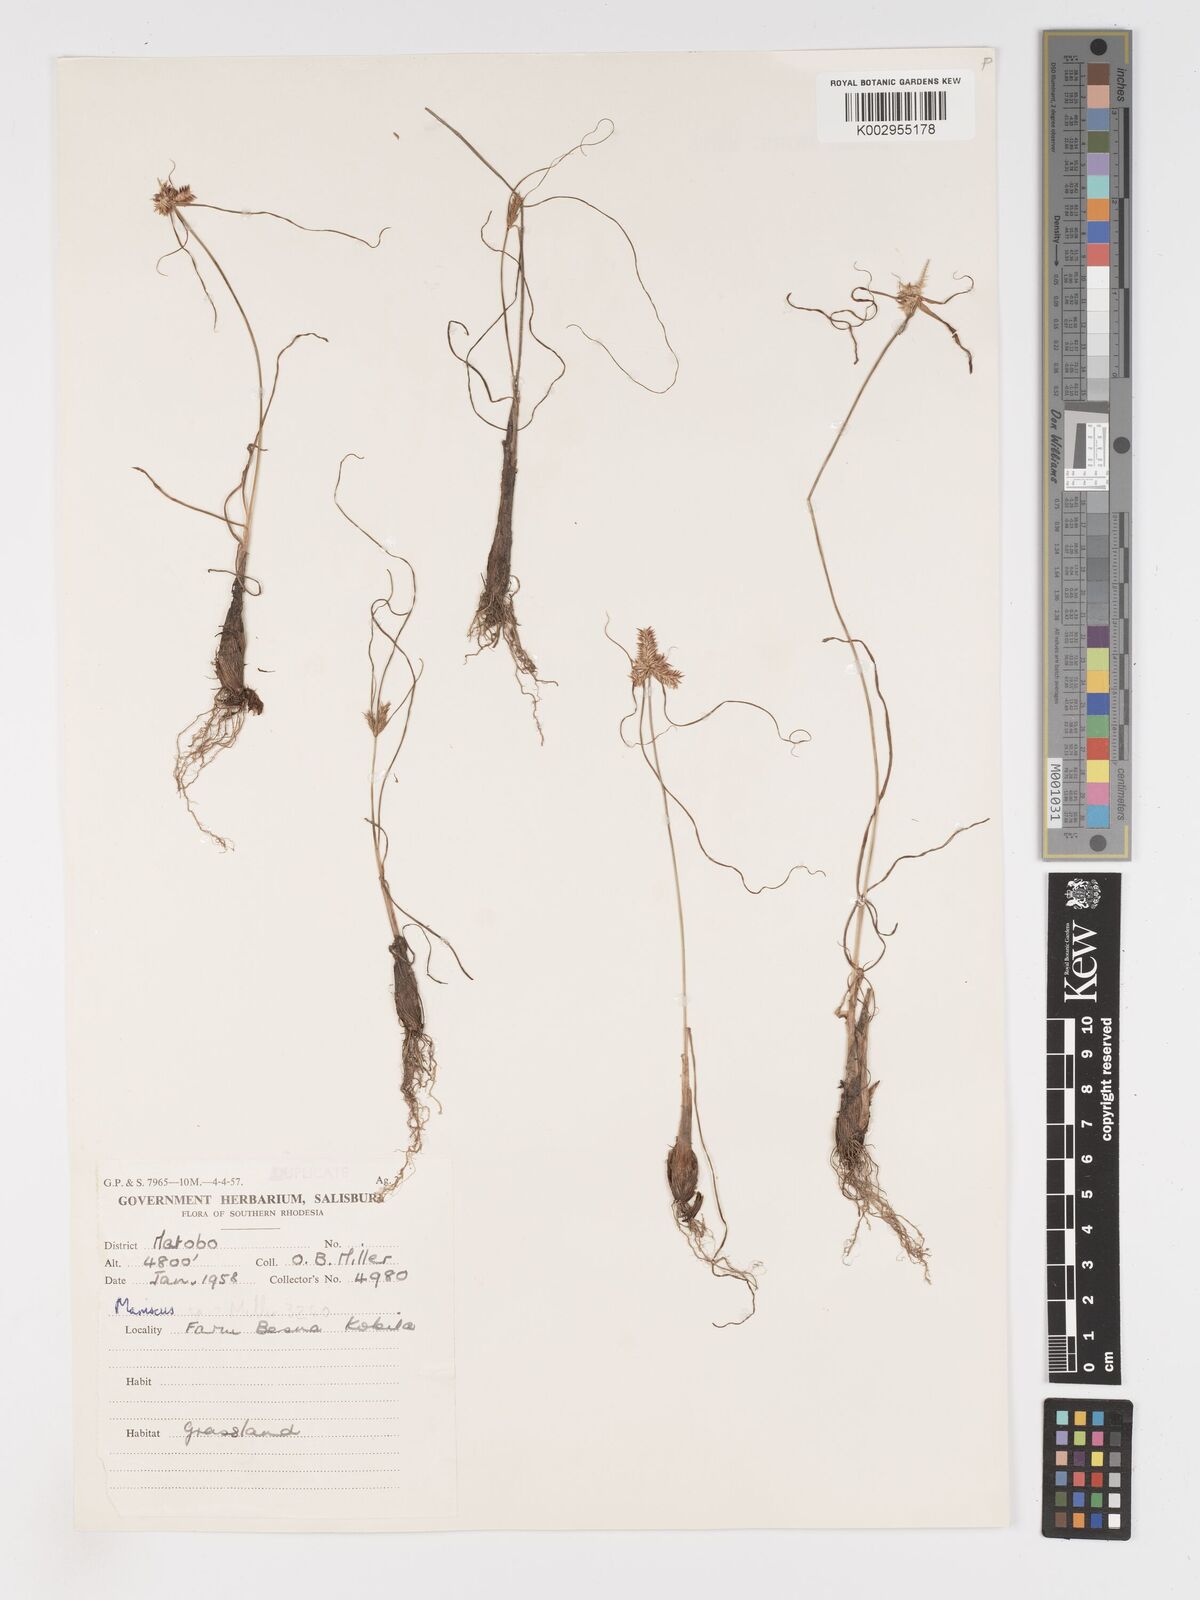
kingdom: Plantae
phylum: Tracheophyta
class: Liliopsida
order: Poales
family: Cyperaceae
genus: Cyperus
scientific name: Cyperus
